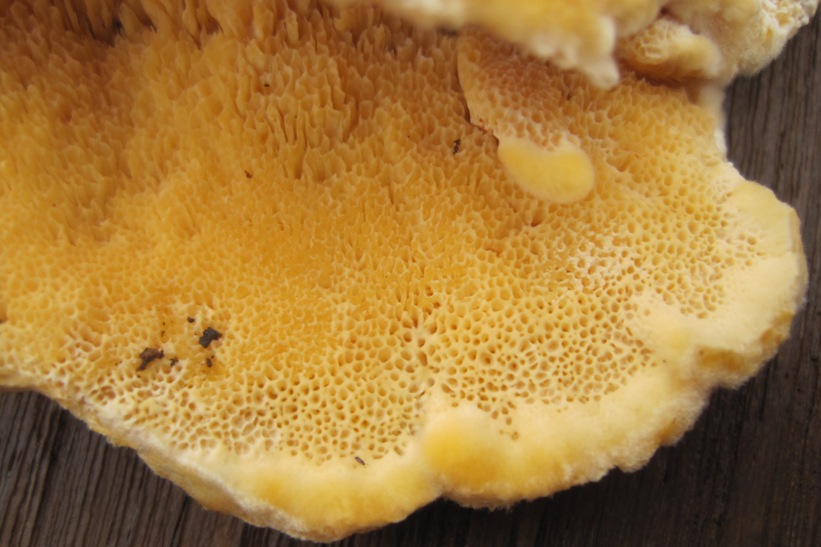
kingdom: Fungi
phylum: Basidiomycota
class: Agaricomycetes
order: Polyporales
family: Pycnoporellaceae
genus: Pycnoporellus
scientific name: Pycnoporellus fulgens
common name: flammeporesvamp
